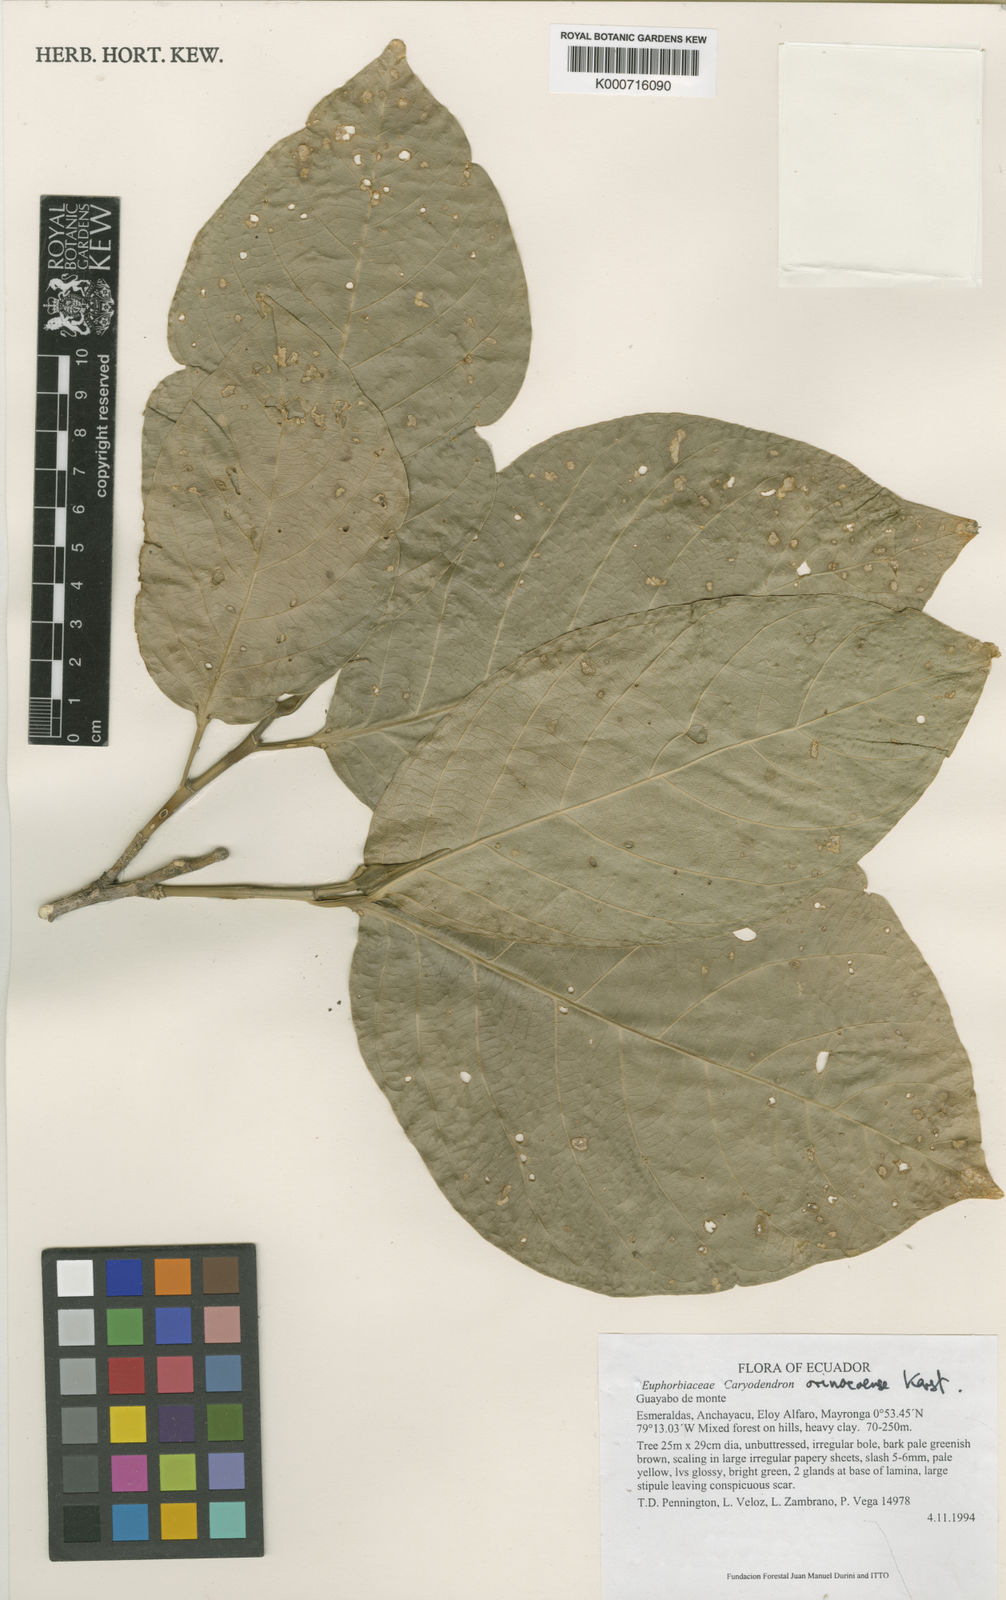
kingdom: Plantae
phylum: Tracheophyta
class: Magnoliopsida
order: Malpighiales
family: Euphorbiaceae
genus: Caryodendron
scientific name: Caryodendron orinocense
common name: Tacaynut
